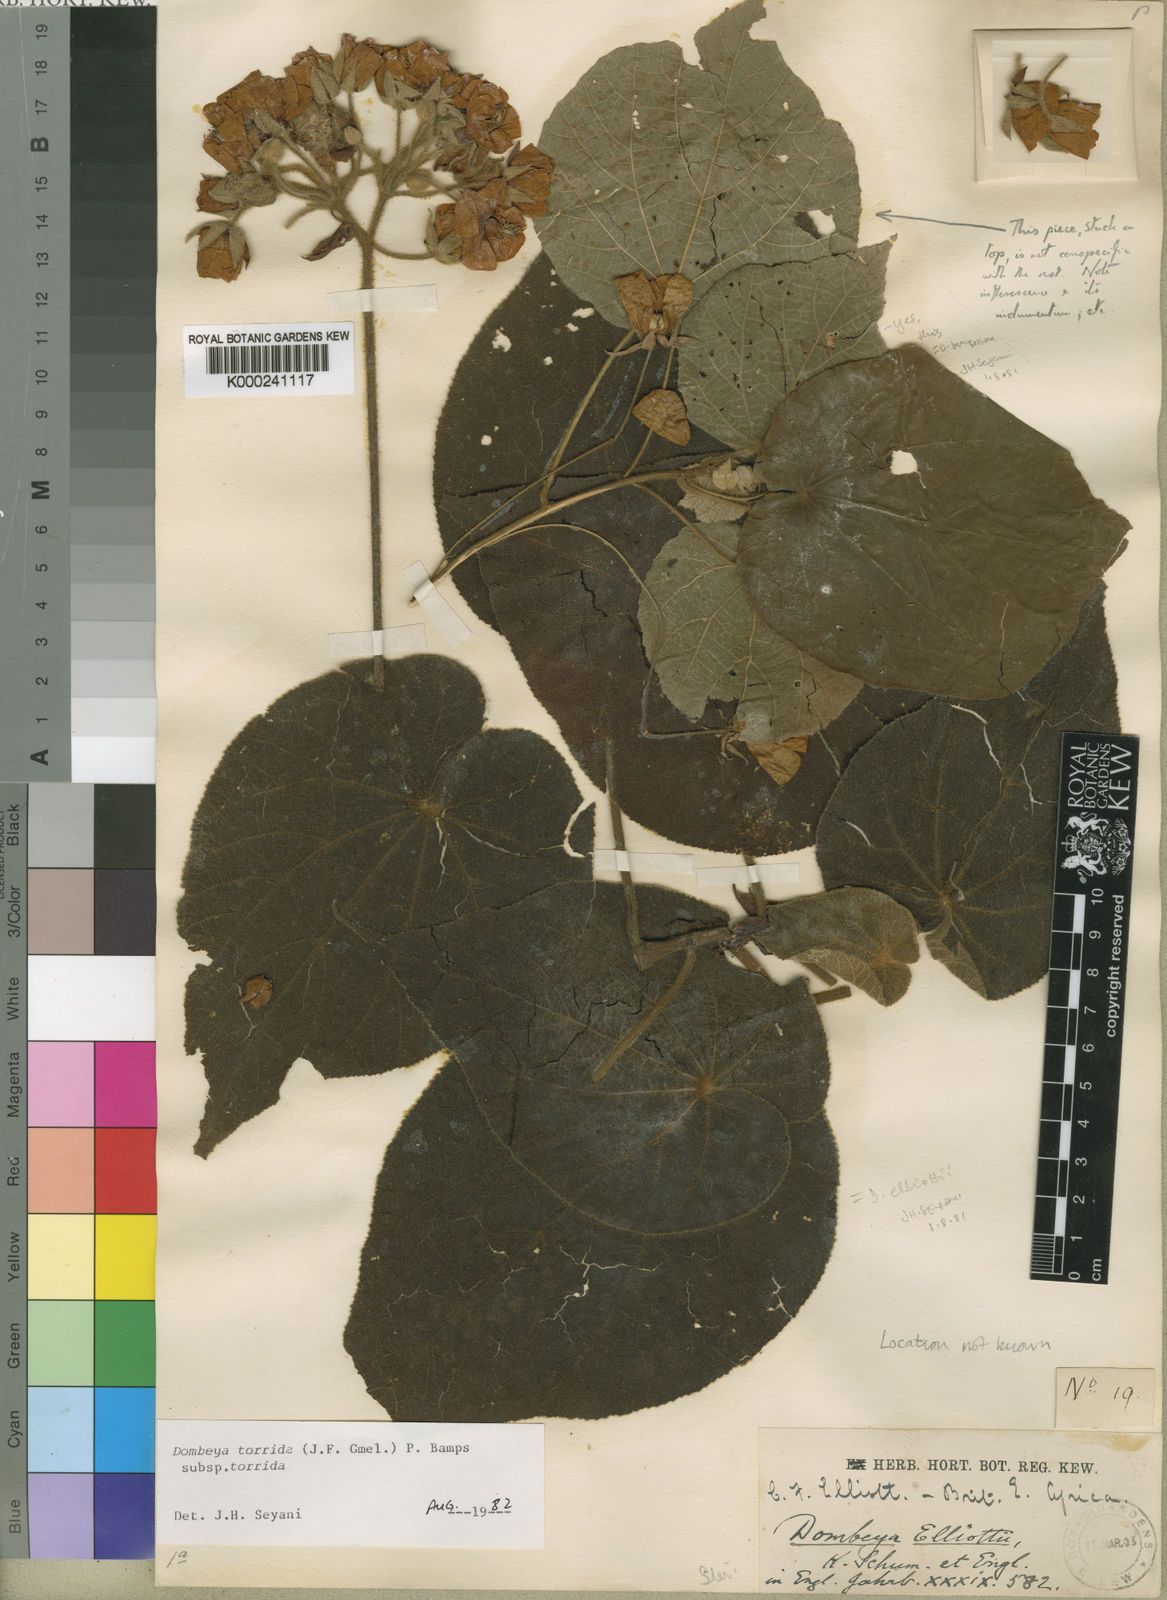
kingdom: Plantae
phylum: Tracheophyta
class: Magnoliopsida
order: Malvales
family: Malvaceae
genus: Dombeya
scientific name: Dombeya torrida
